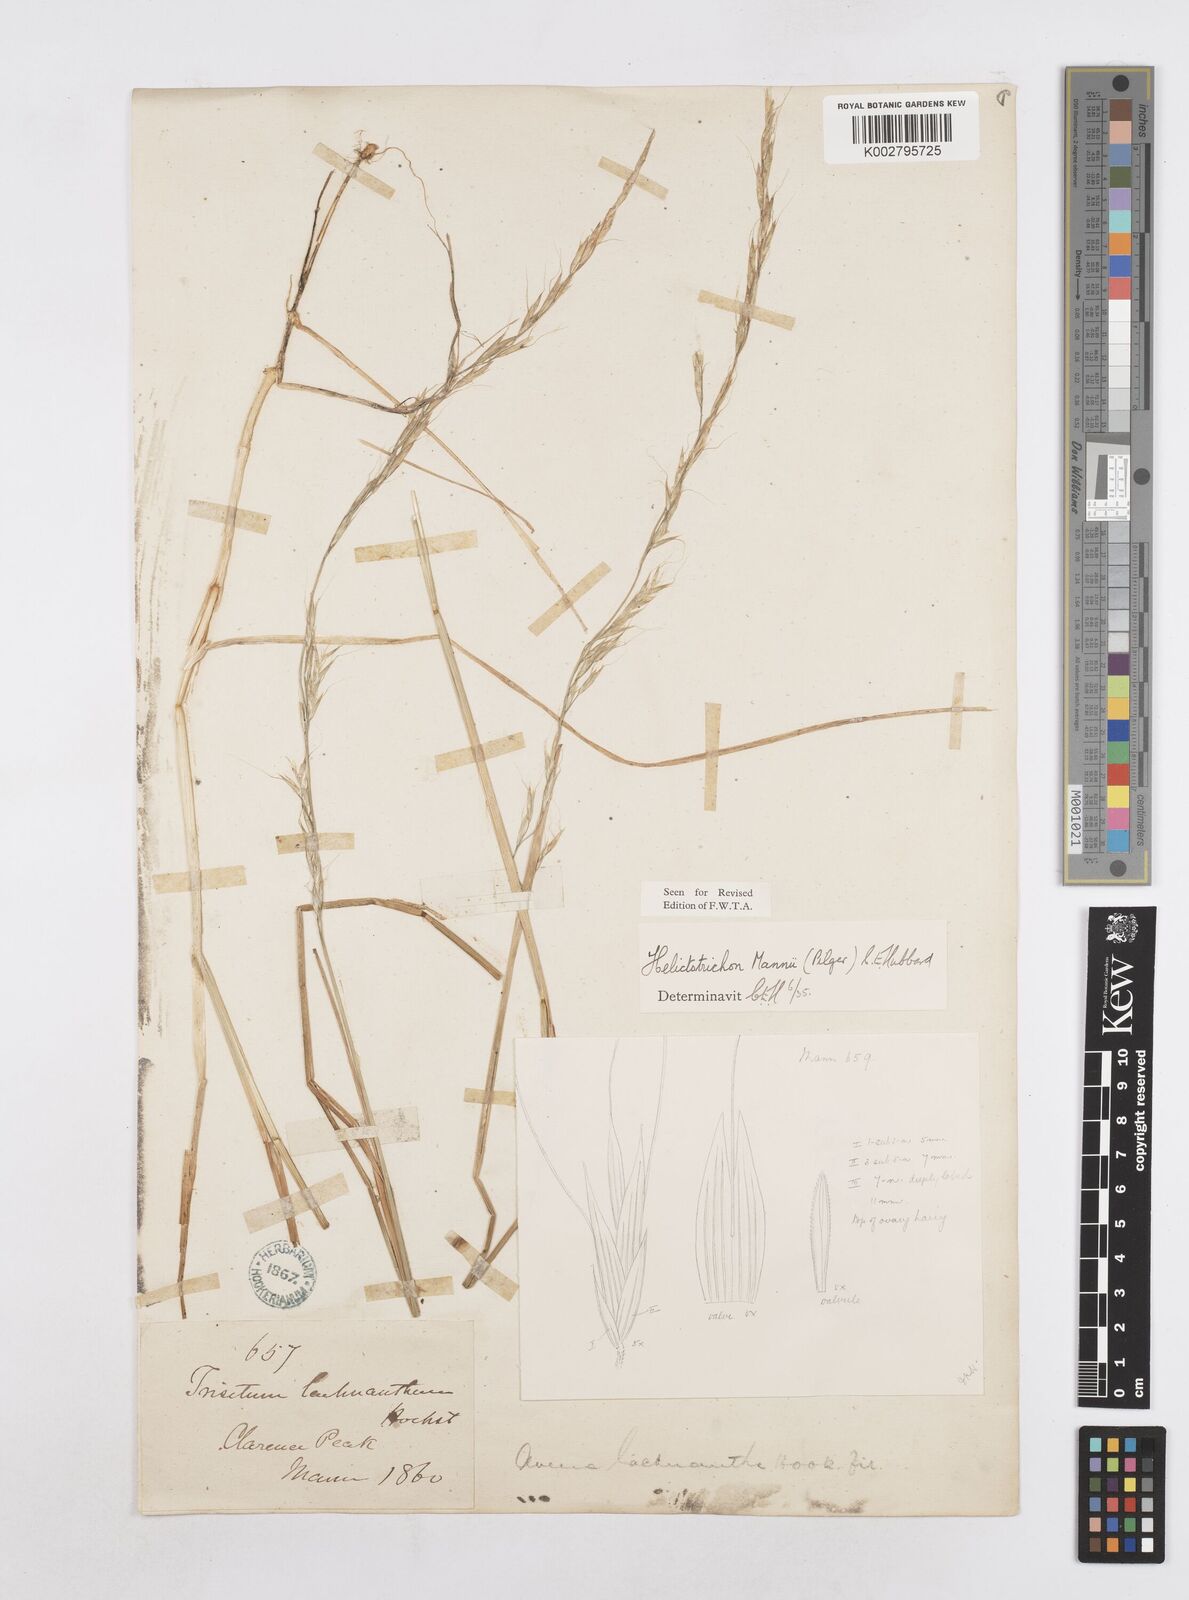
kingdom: Plantae
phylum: Tracheophyta
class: Liliopsida
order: Poales
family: Poaceae
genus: Trisetopsis
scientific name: Trisetopsis mannii
